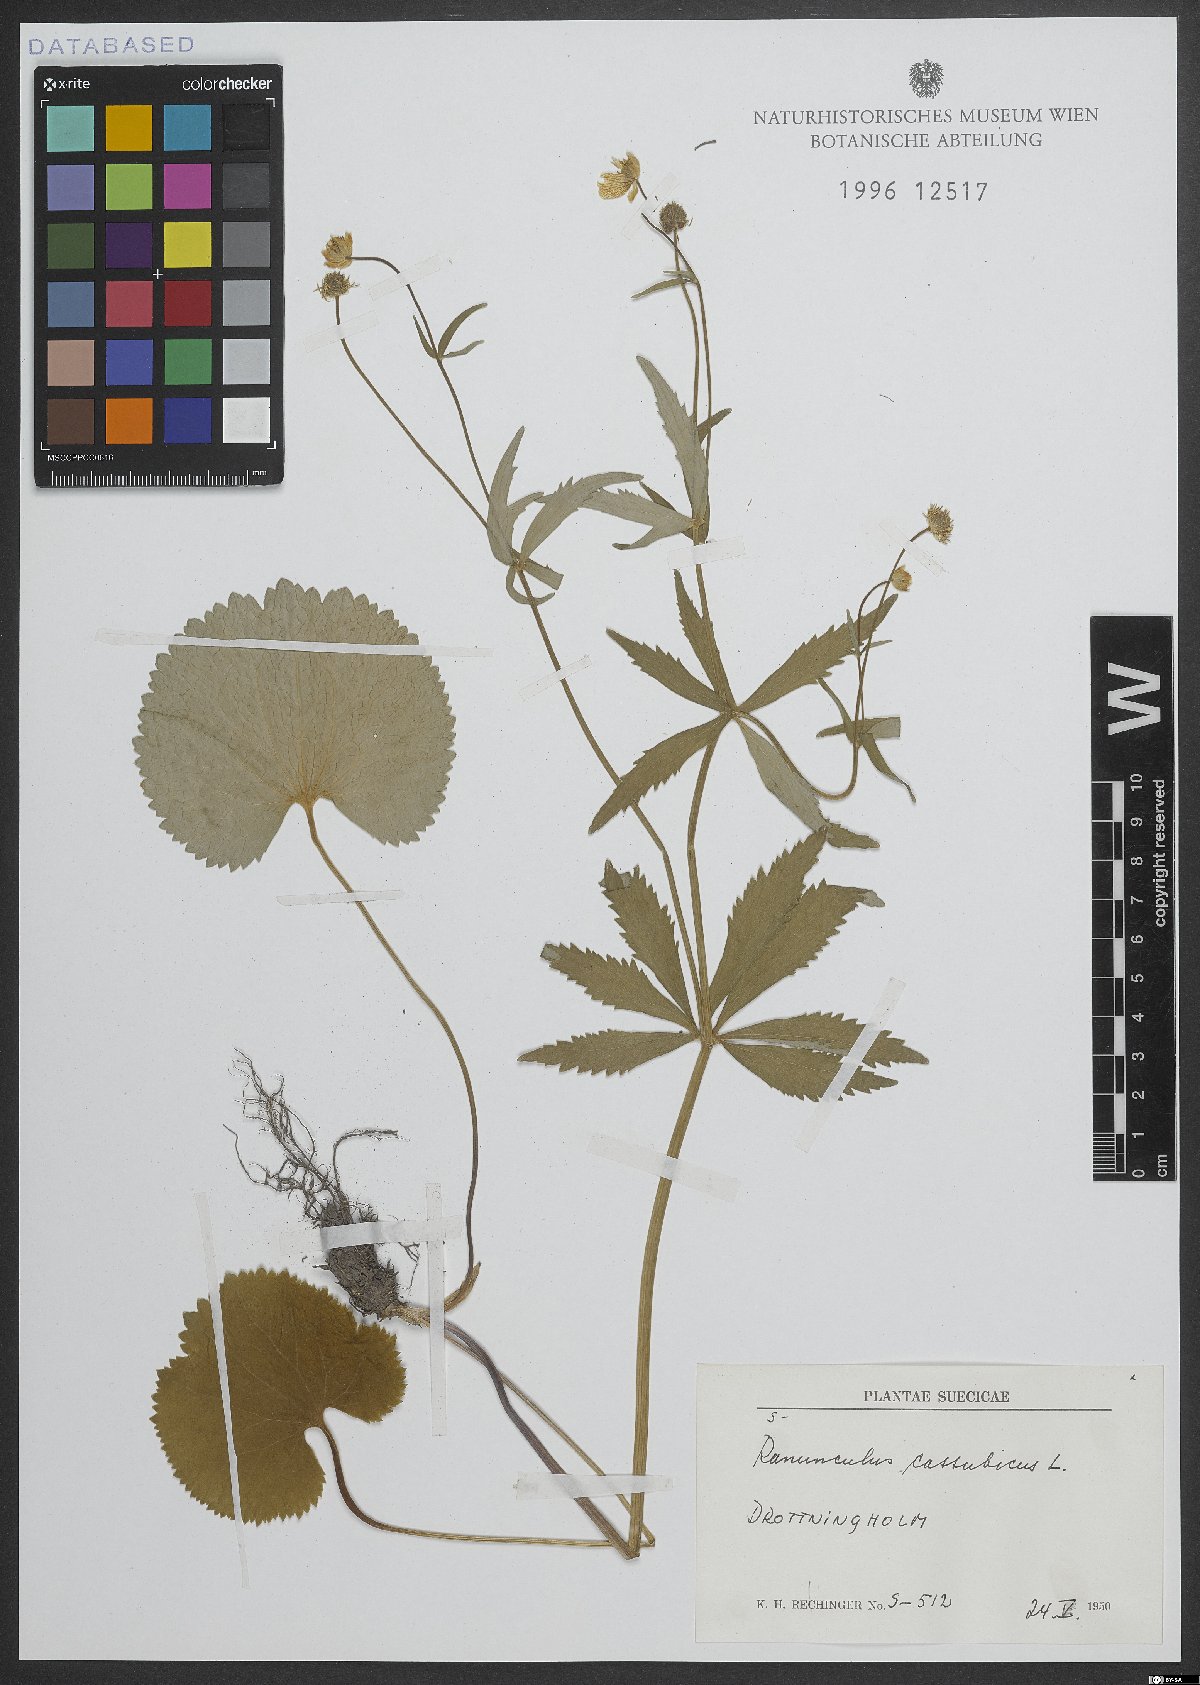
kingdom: Plantae
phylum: Tracheophyta
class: Magnoliopsida
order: Ranunculales
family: Ranunculaceae
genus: Ranunculus
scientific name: Ranunculus cassubicus
